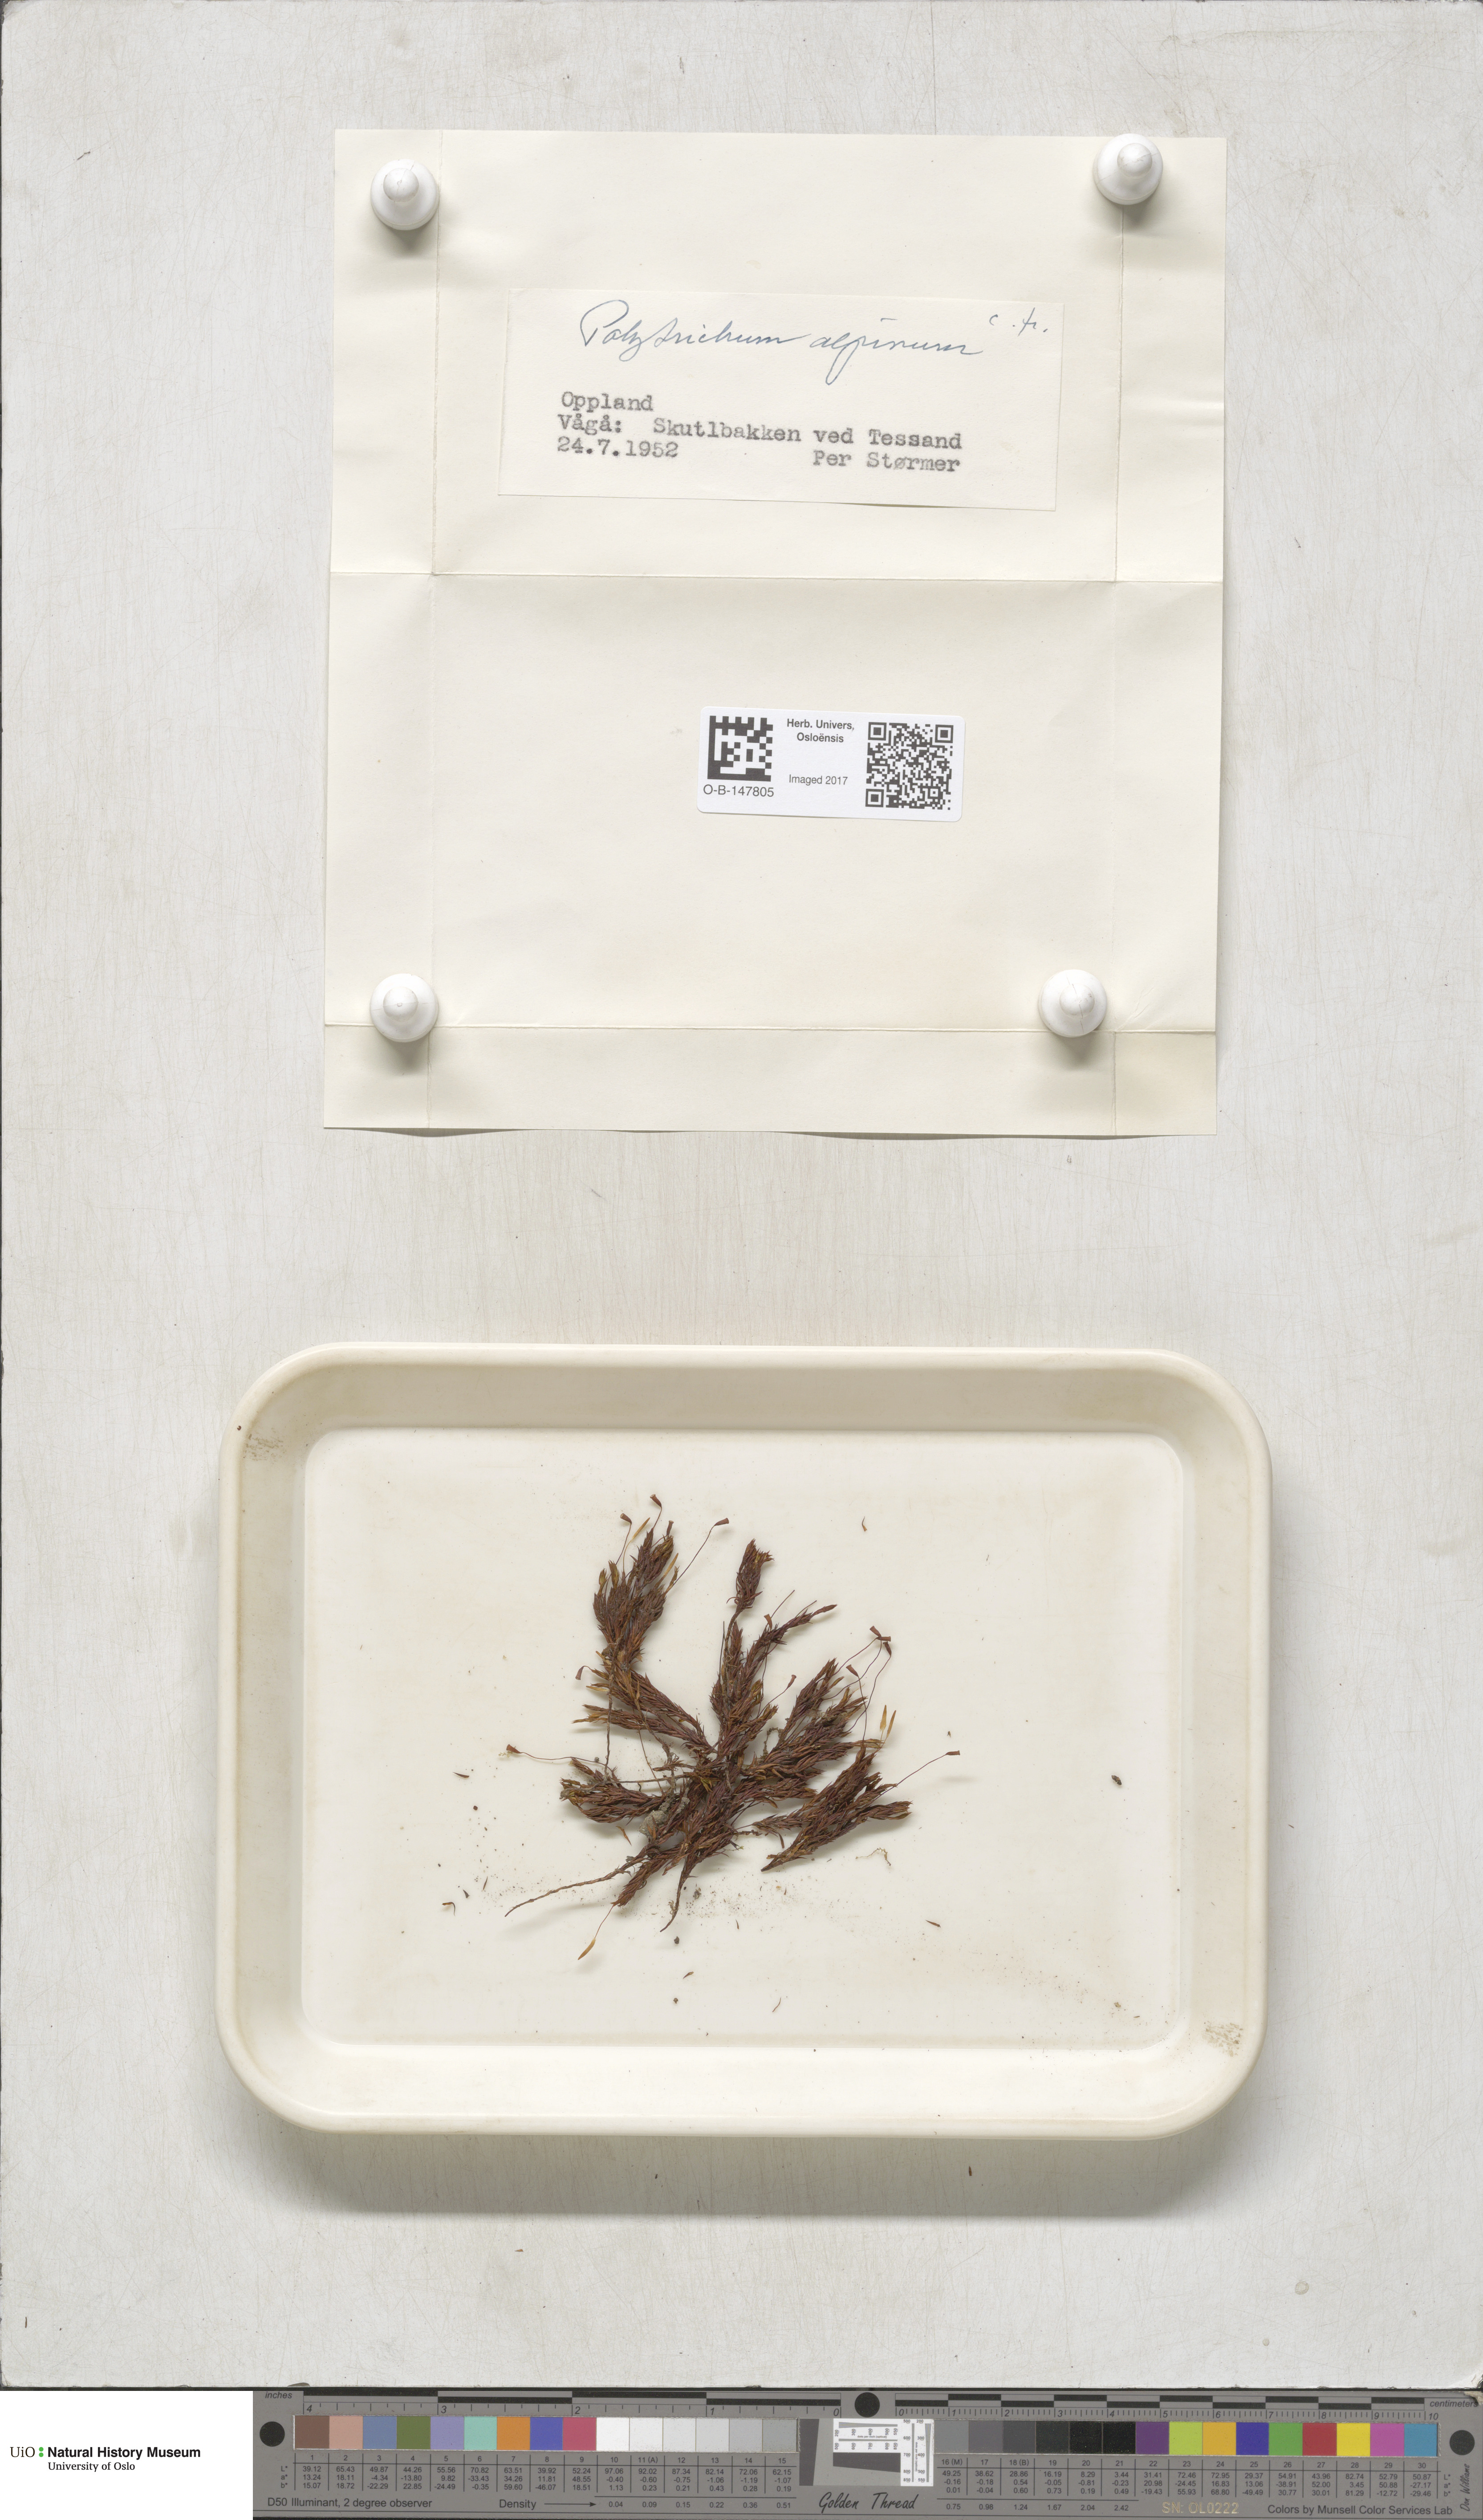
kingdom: Plantae
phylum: Bryophyta
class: Polytrichopsida
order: Polytrichales
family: Polytrichaceae
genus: Polytrichastrum
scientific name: Polytrichastrum alpinum
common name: Alpine haircap
